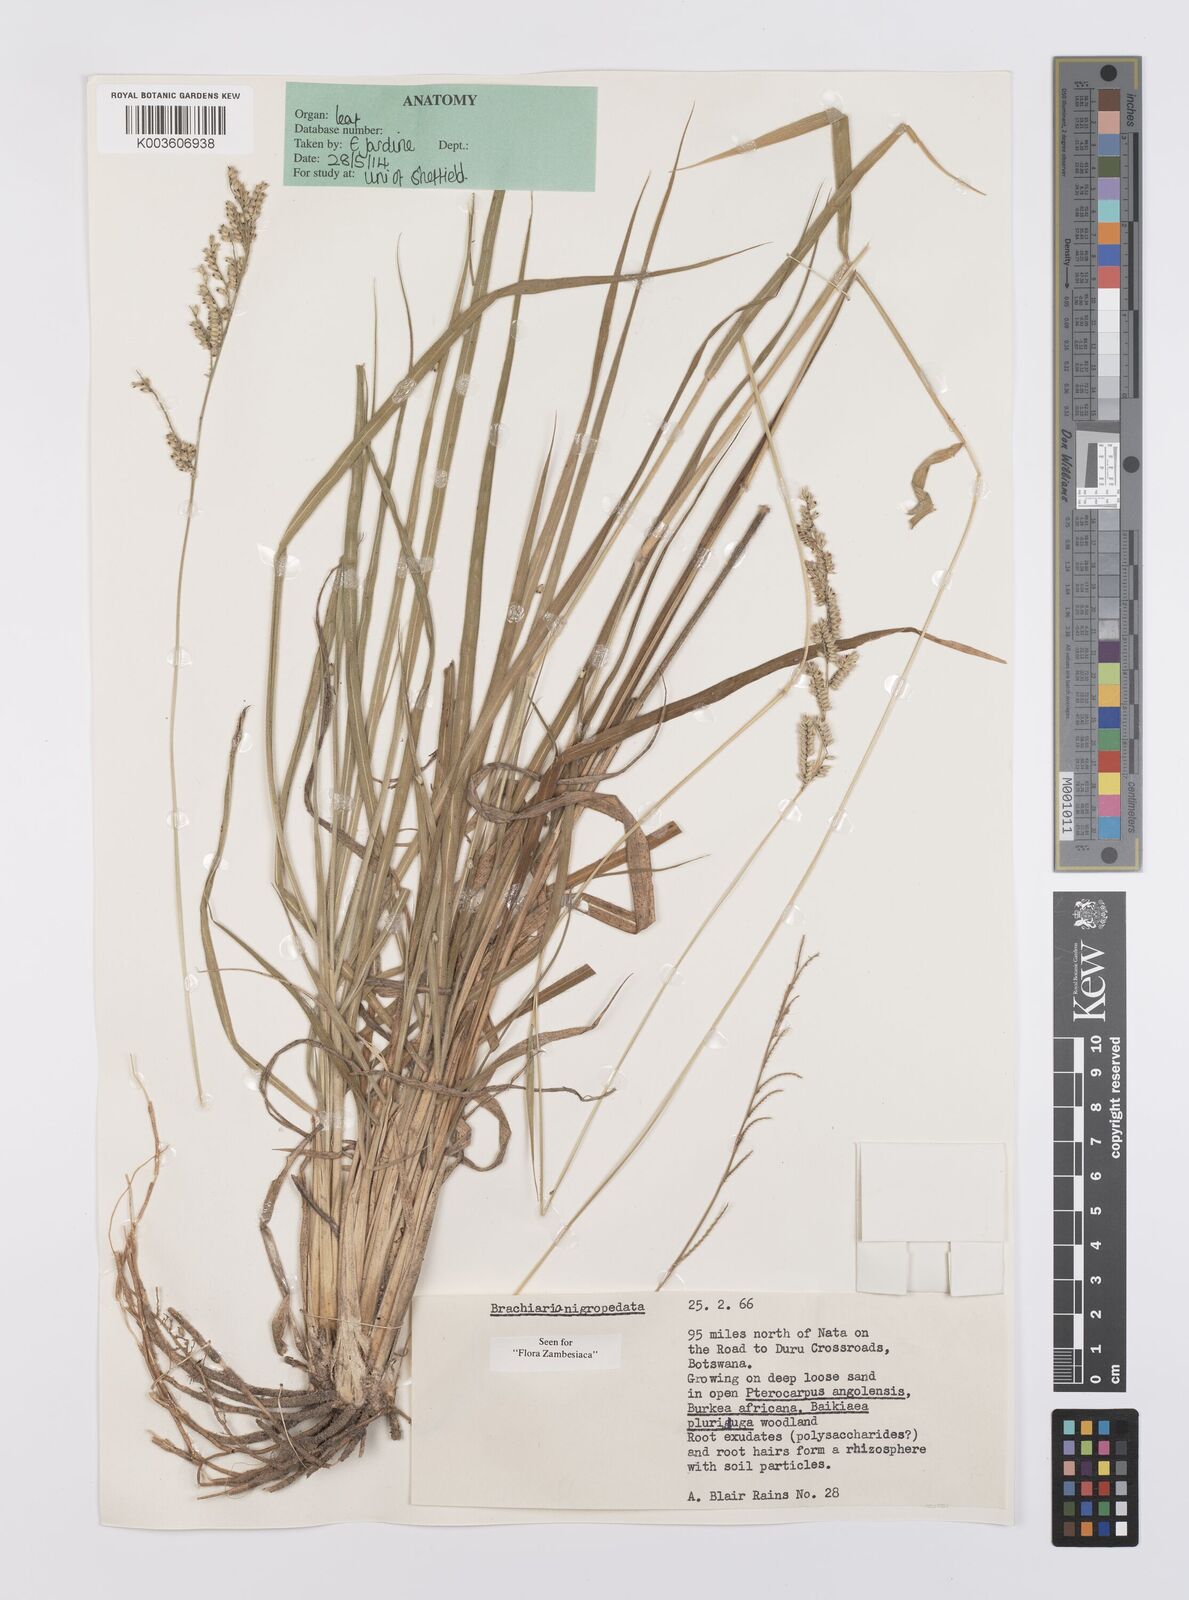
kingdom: Plantae
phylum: Tracheophyta
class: Liliopsida
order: Poales
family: Poaceae
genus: Urochloa
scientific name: Urochloa nigropedata
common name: Spotted signal grass
